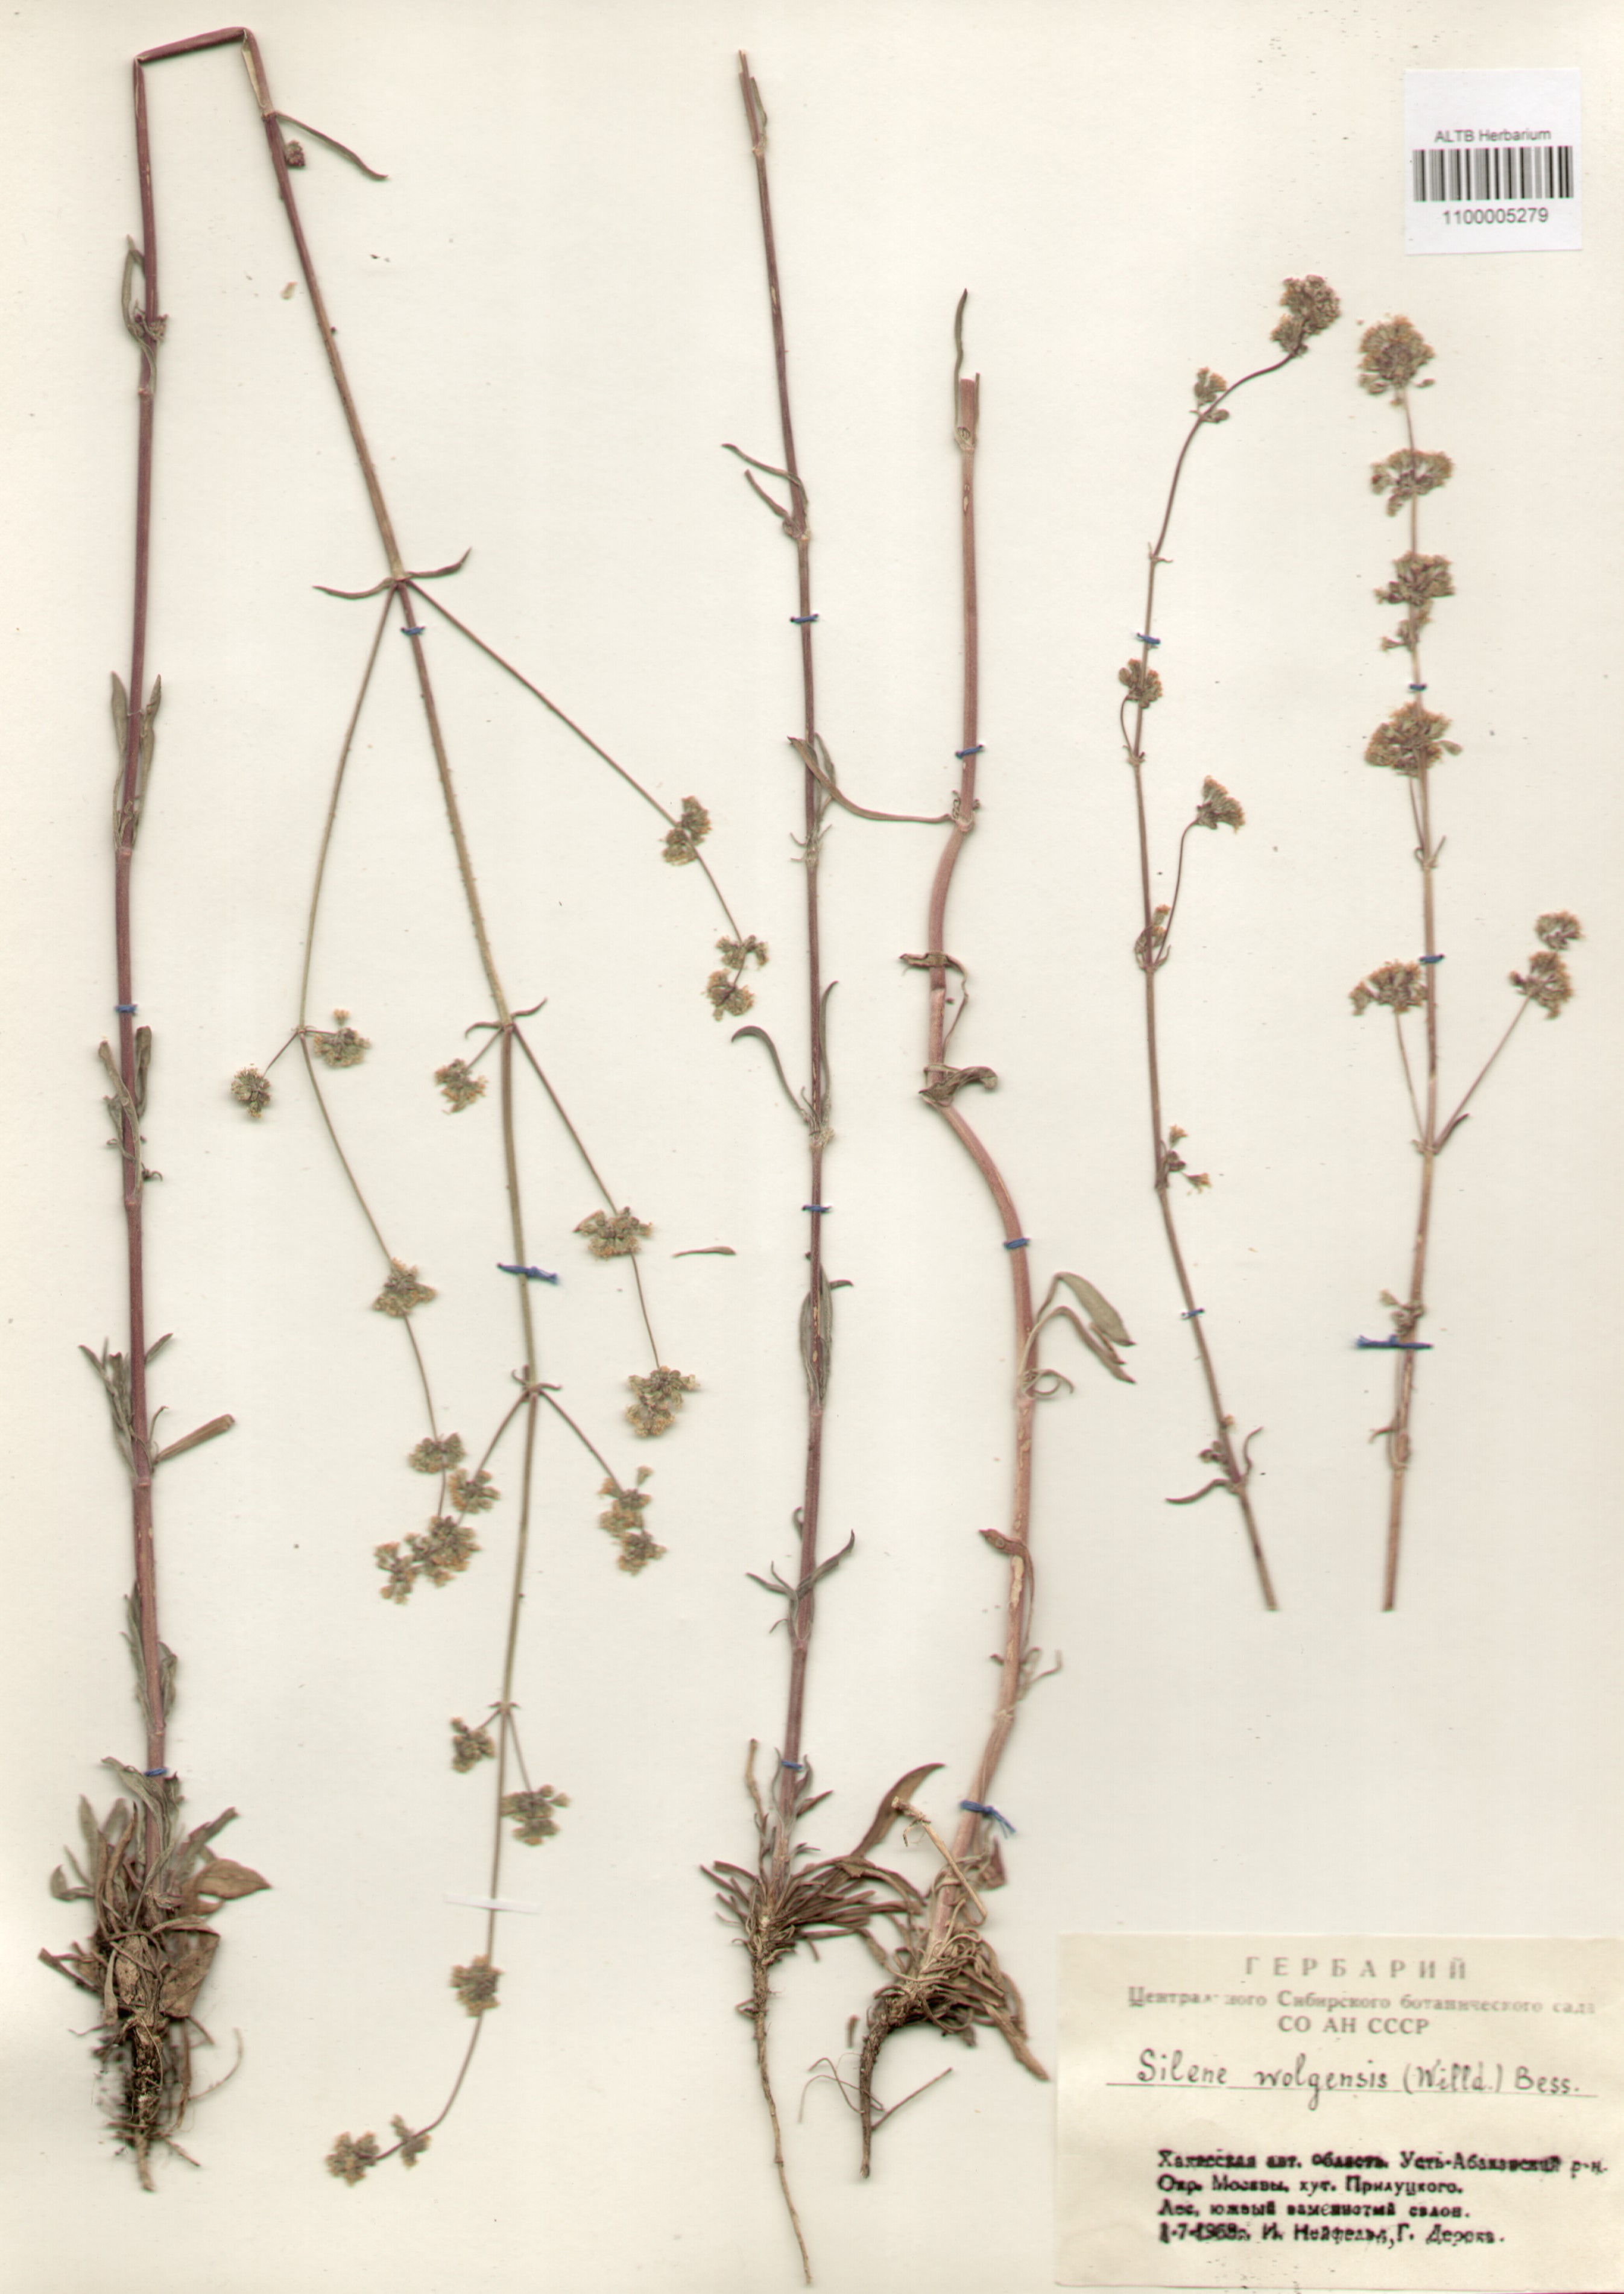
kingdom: Plantae
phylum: Tracheophyta
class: Magnoliopsida
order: Caryophyllales
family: Caryophyllaceae
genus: Silene
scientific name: Silene wolgensis
